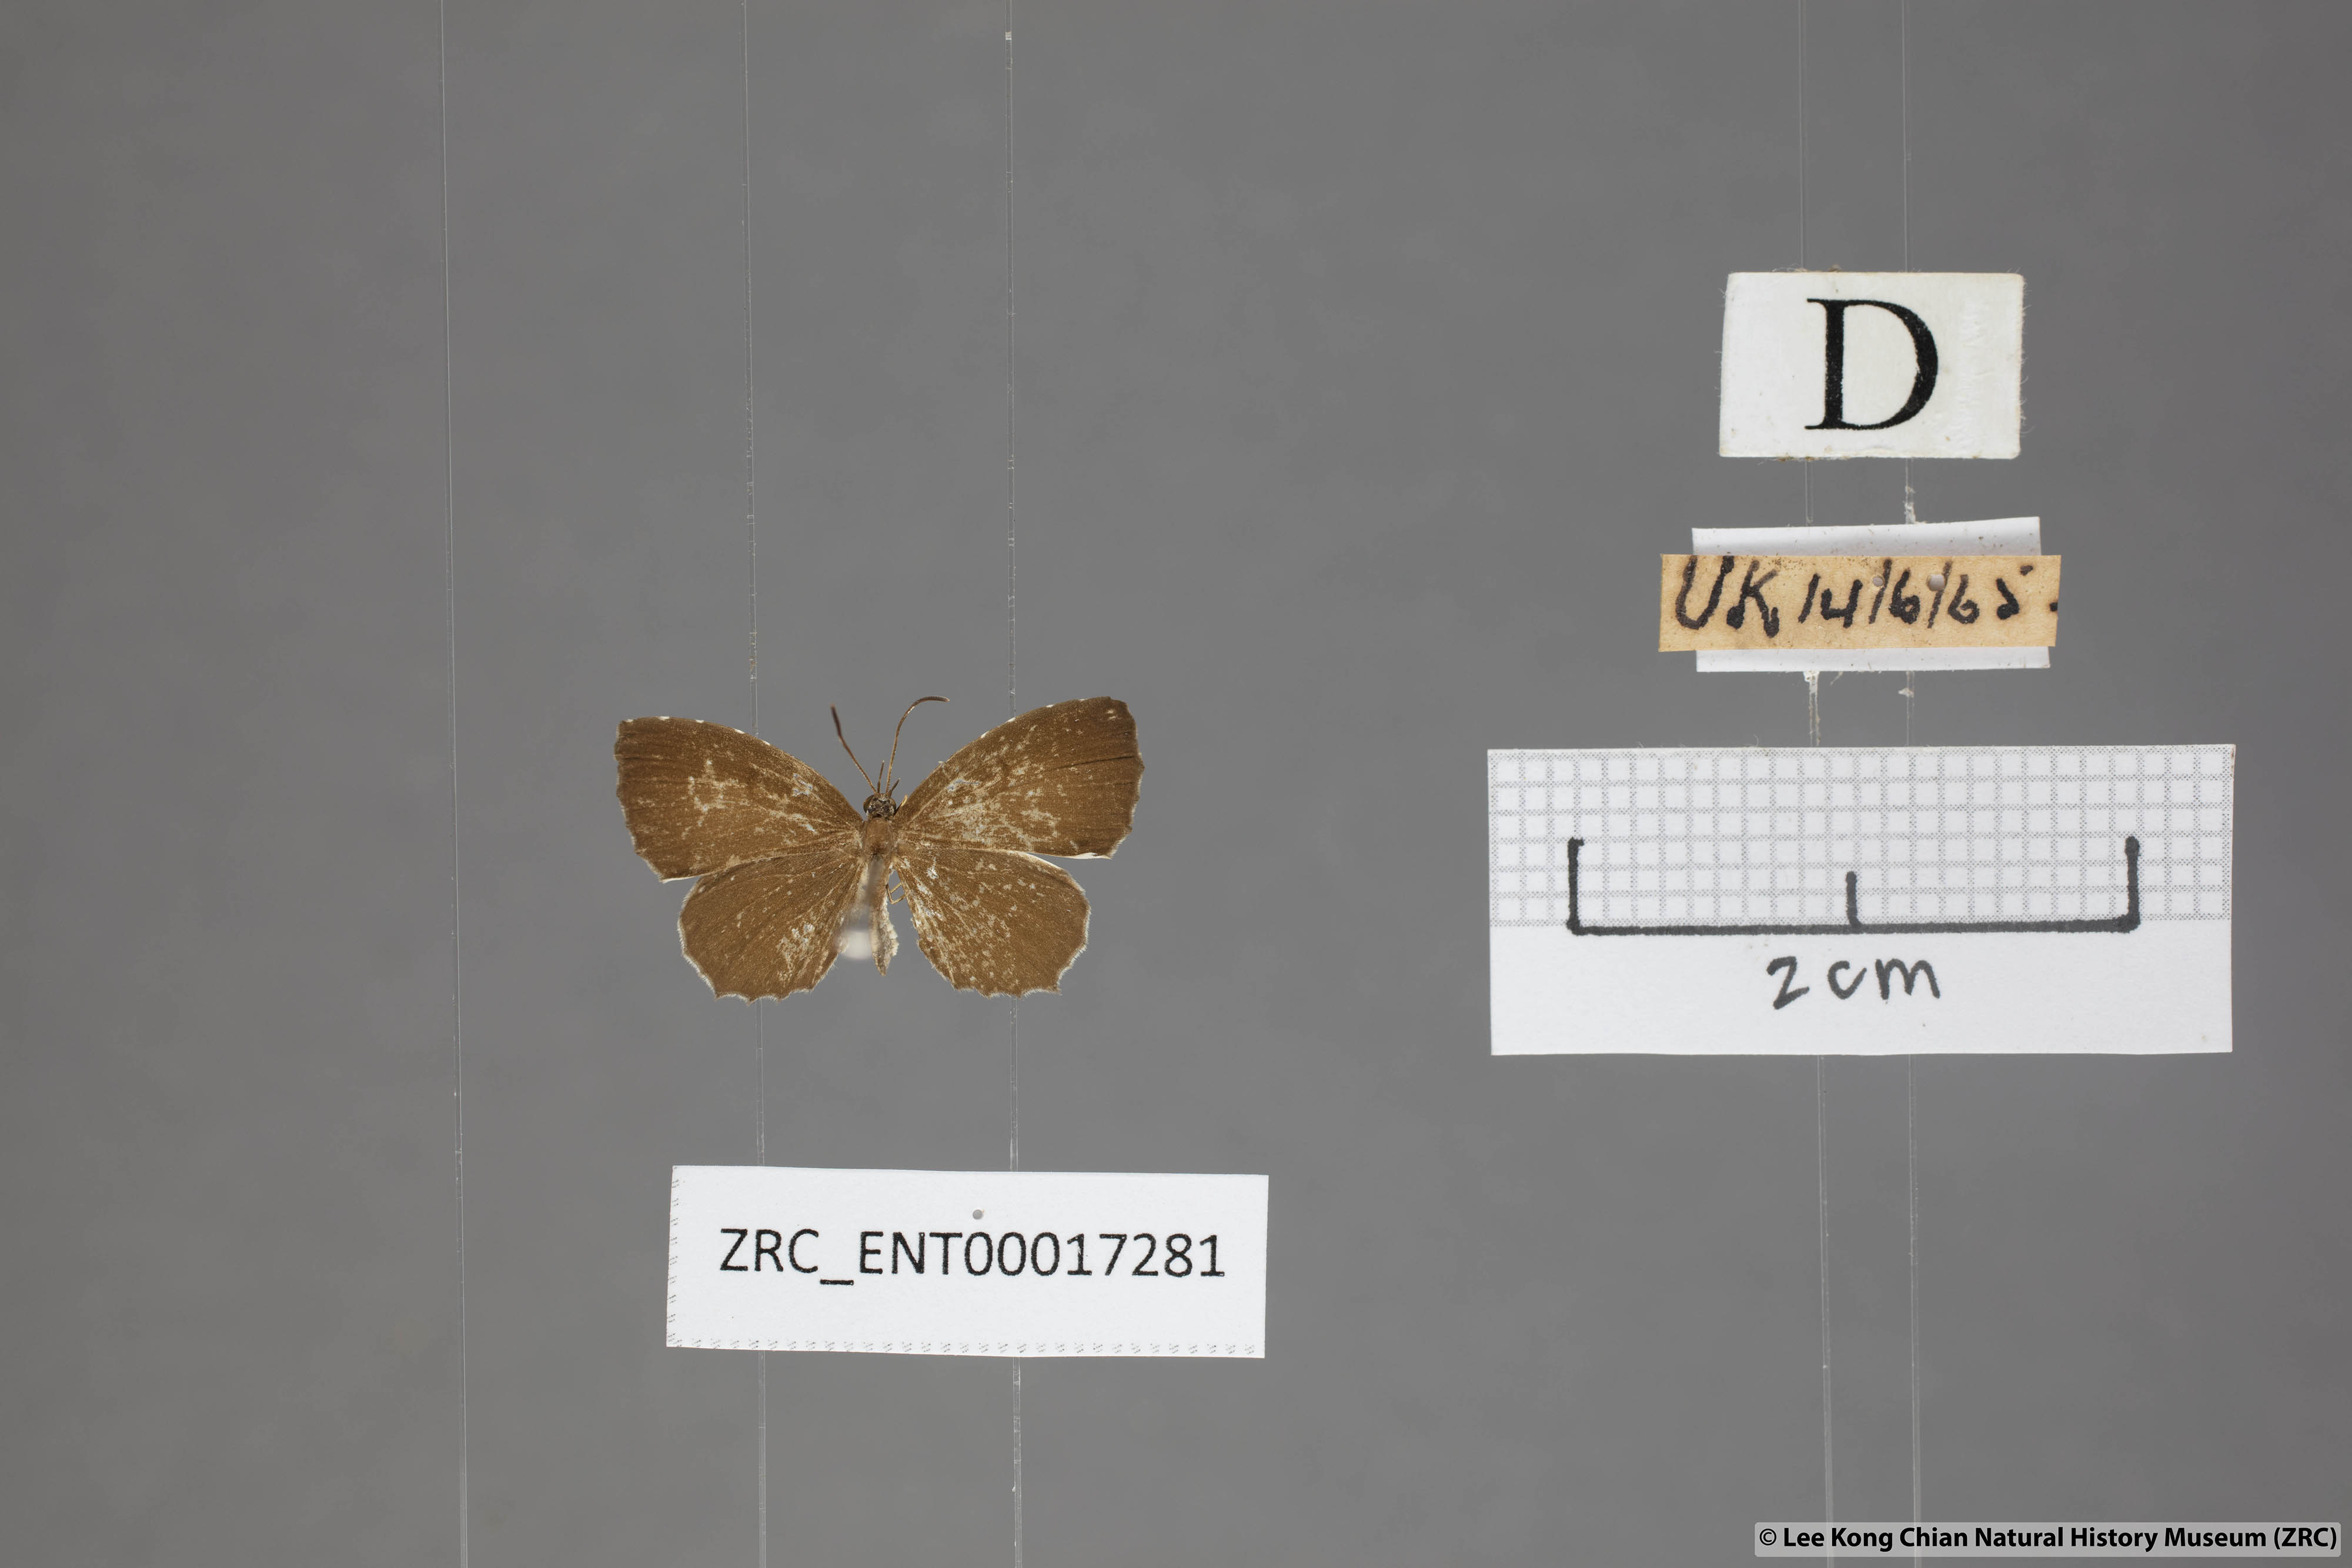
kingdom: Animalia
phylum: Arthropoda
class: Insecta
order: Lepidoptera
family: Lycaenidae
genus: Allotinus
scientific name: Allotinus substrigosa
